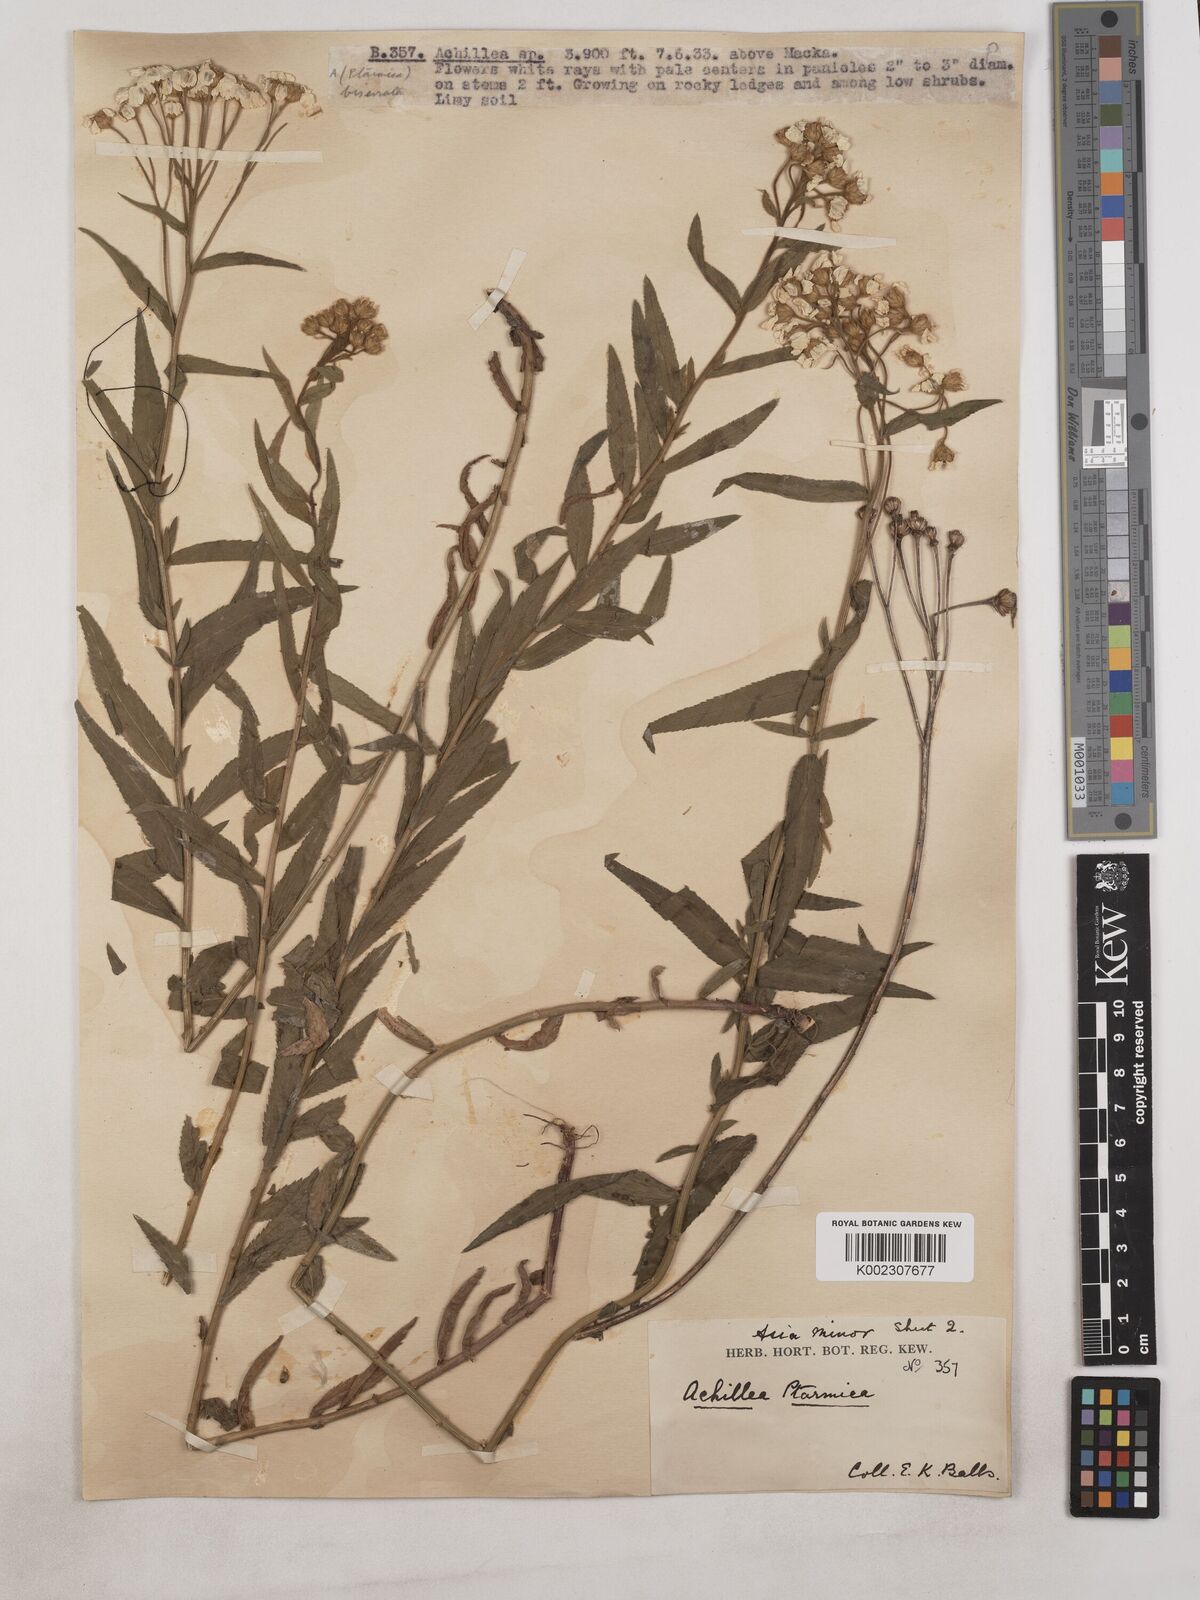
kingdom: Plantae
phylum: Tracheophyta
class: Magnoliopsida
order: Asterales
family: Asteraceae
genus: Achillea
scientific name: Achillea biserrata
